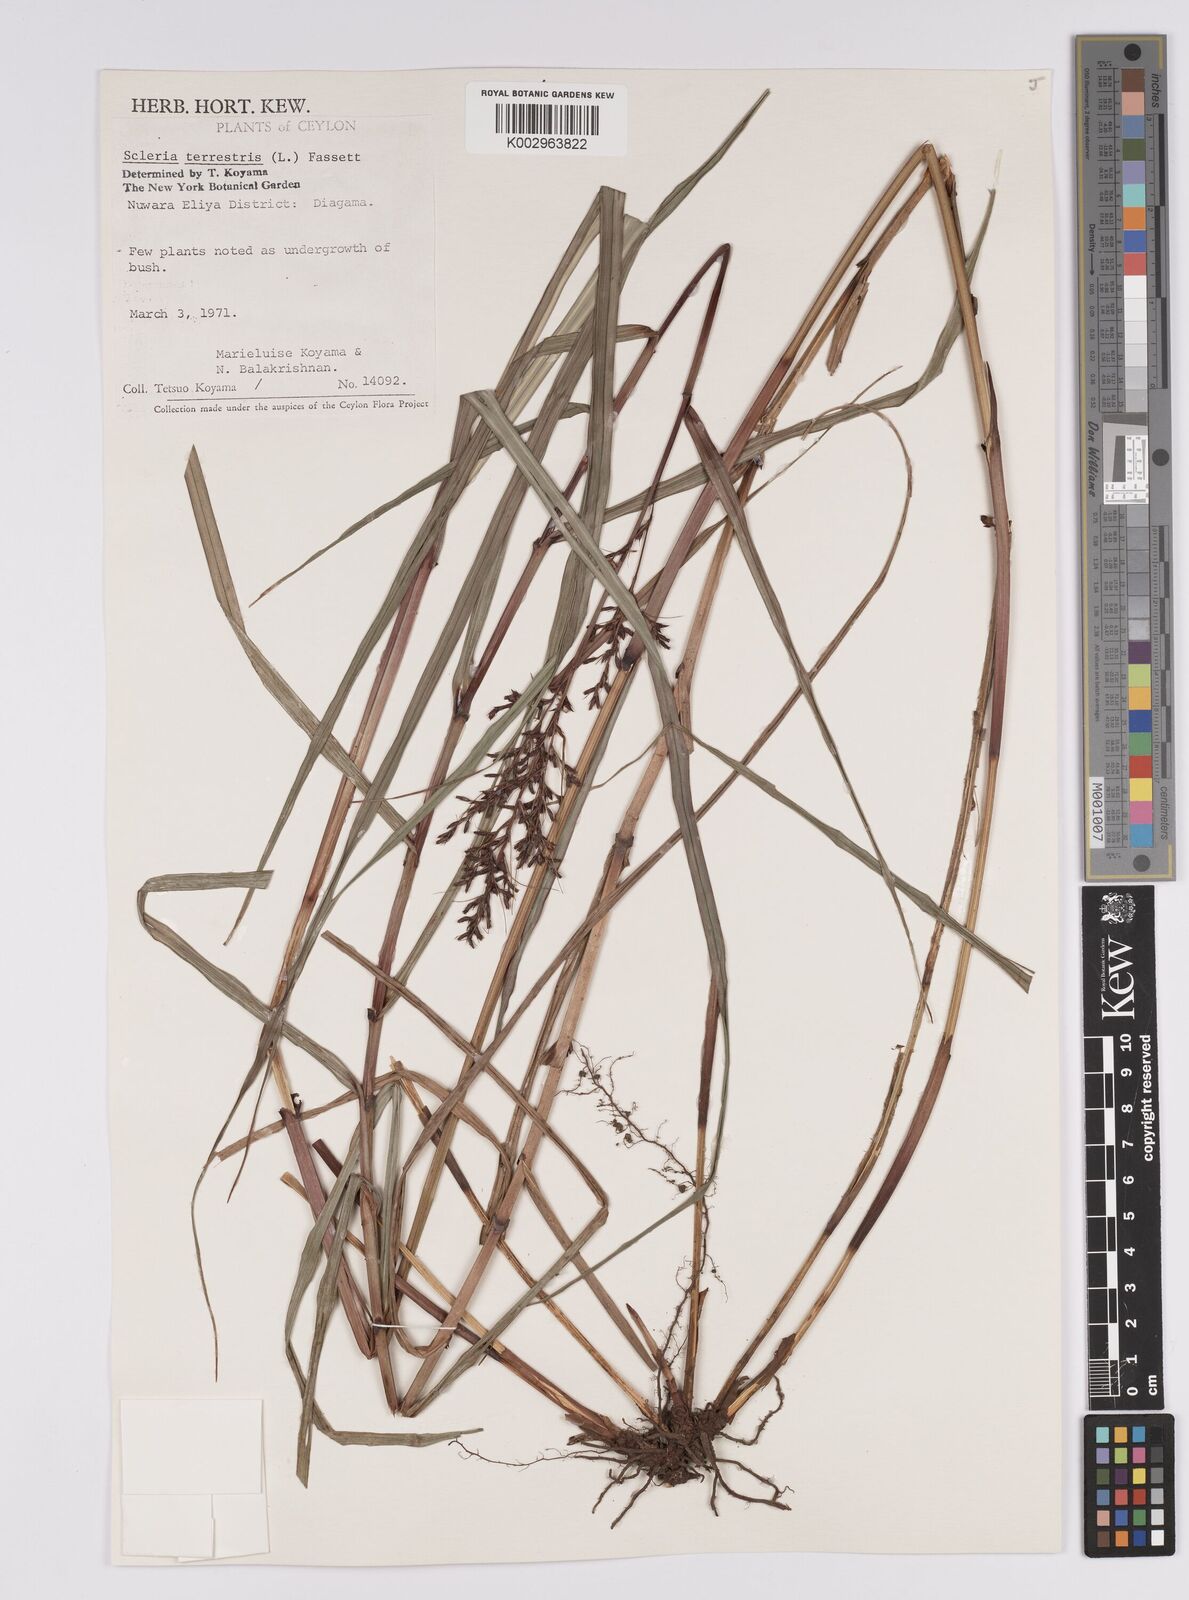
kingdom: Plantae
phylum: Tracheophyta
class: Liliopsida
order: Poales
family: Cyperaceae
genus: Scleria
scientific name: Scleria terrestris
